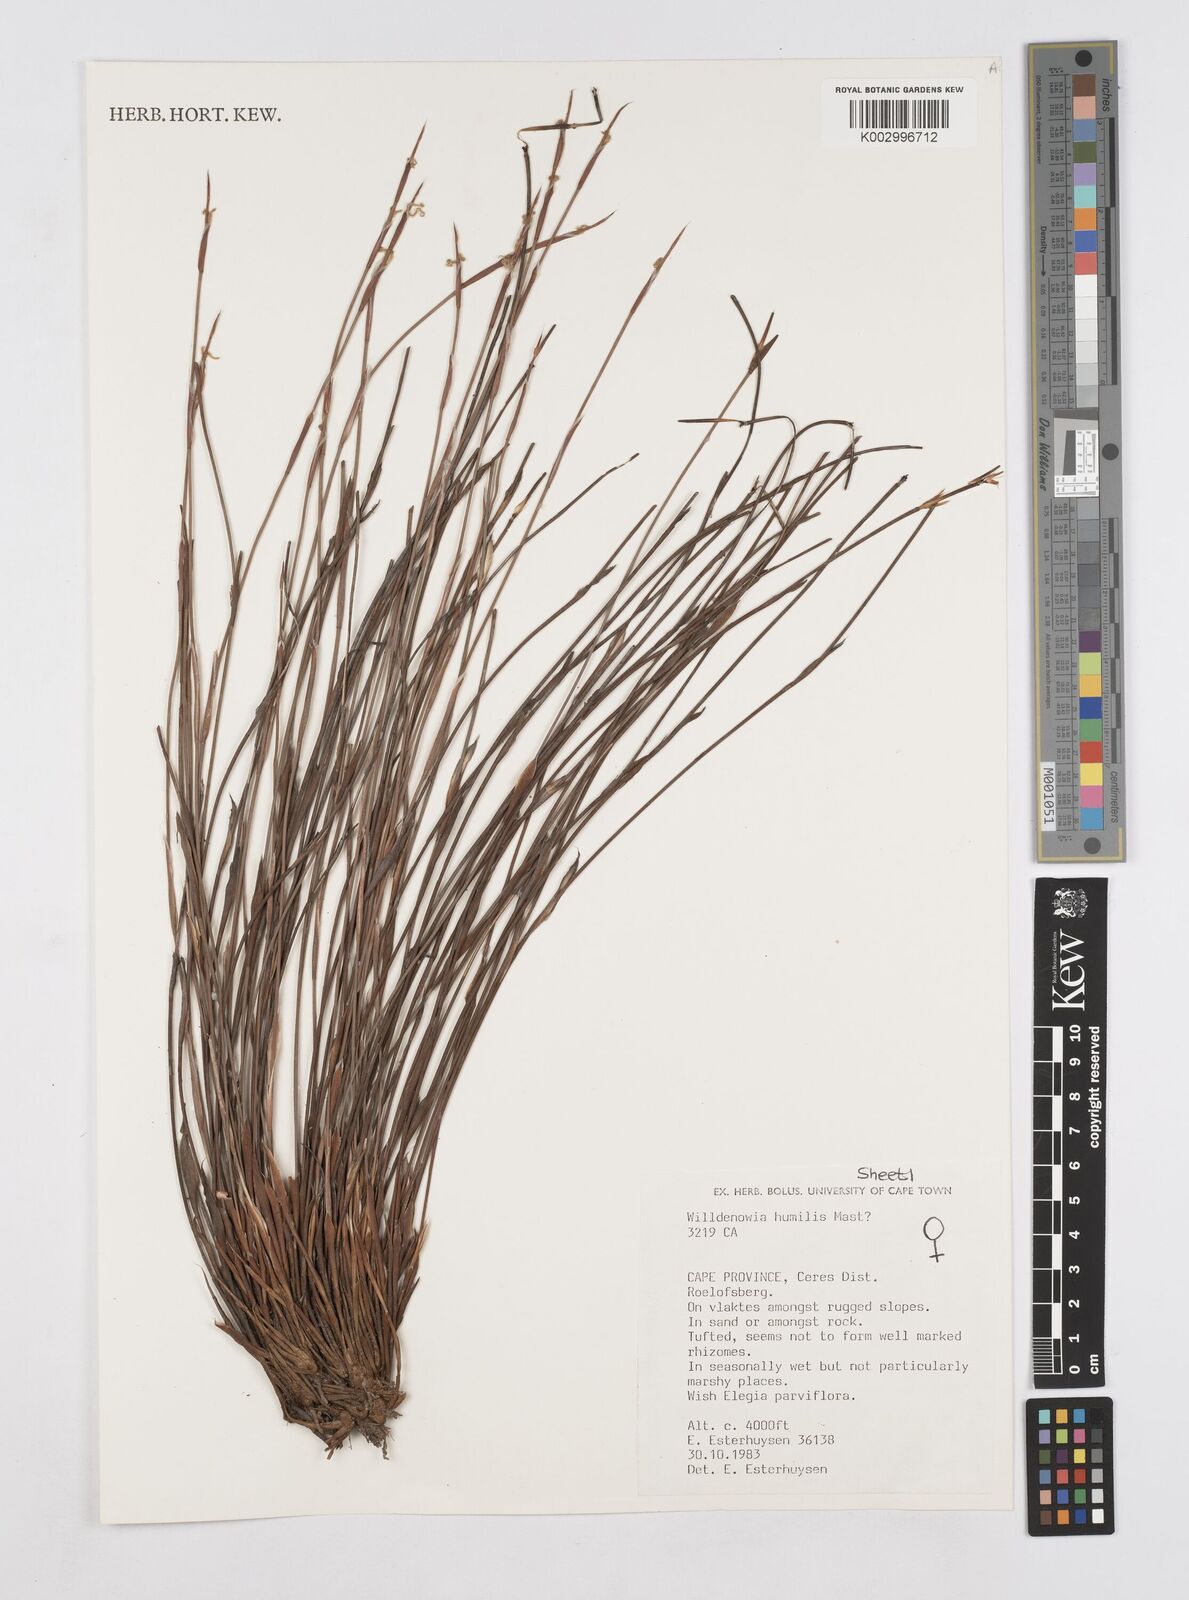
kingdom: Plantae
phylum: Tracheophyta
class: Liliopsida
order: Poales
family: Restionaceae
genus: Willdenowia
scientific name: Willdenowia humilis
